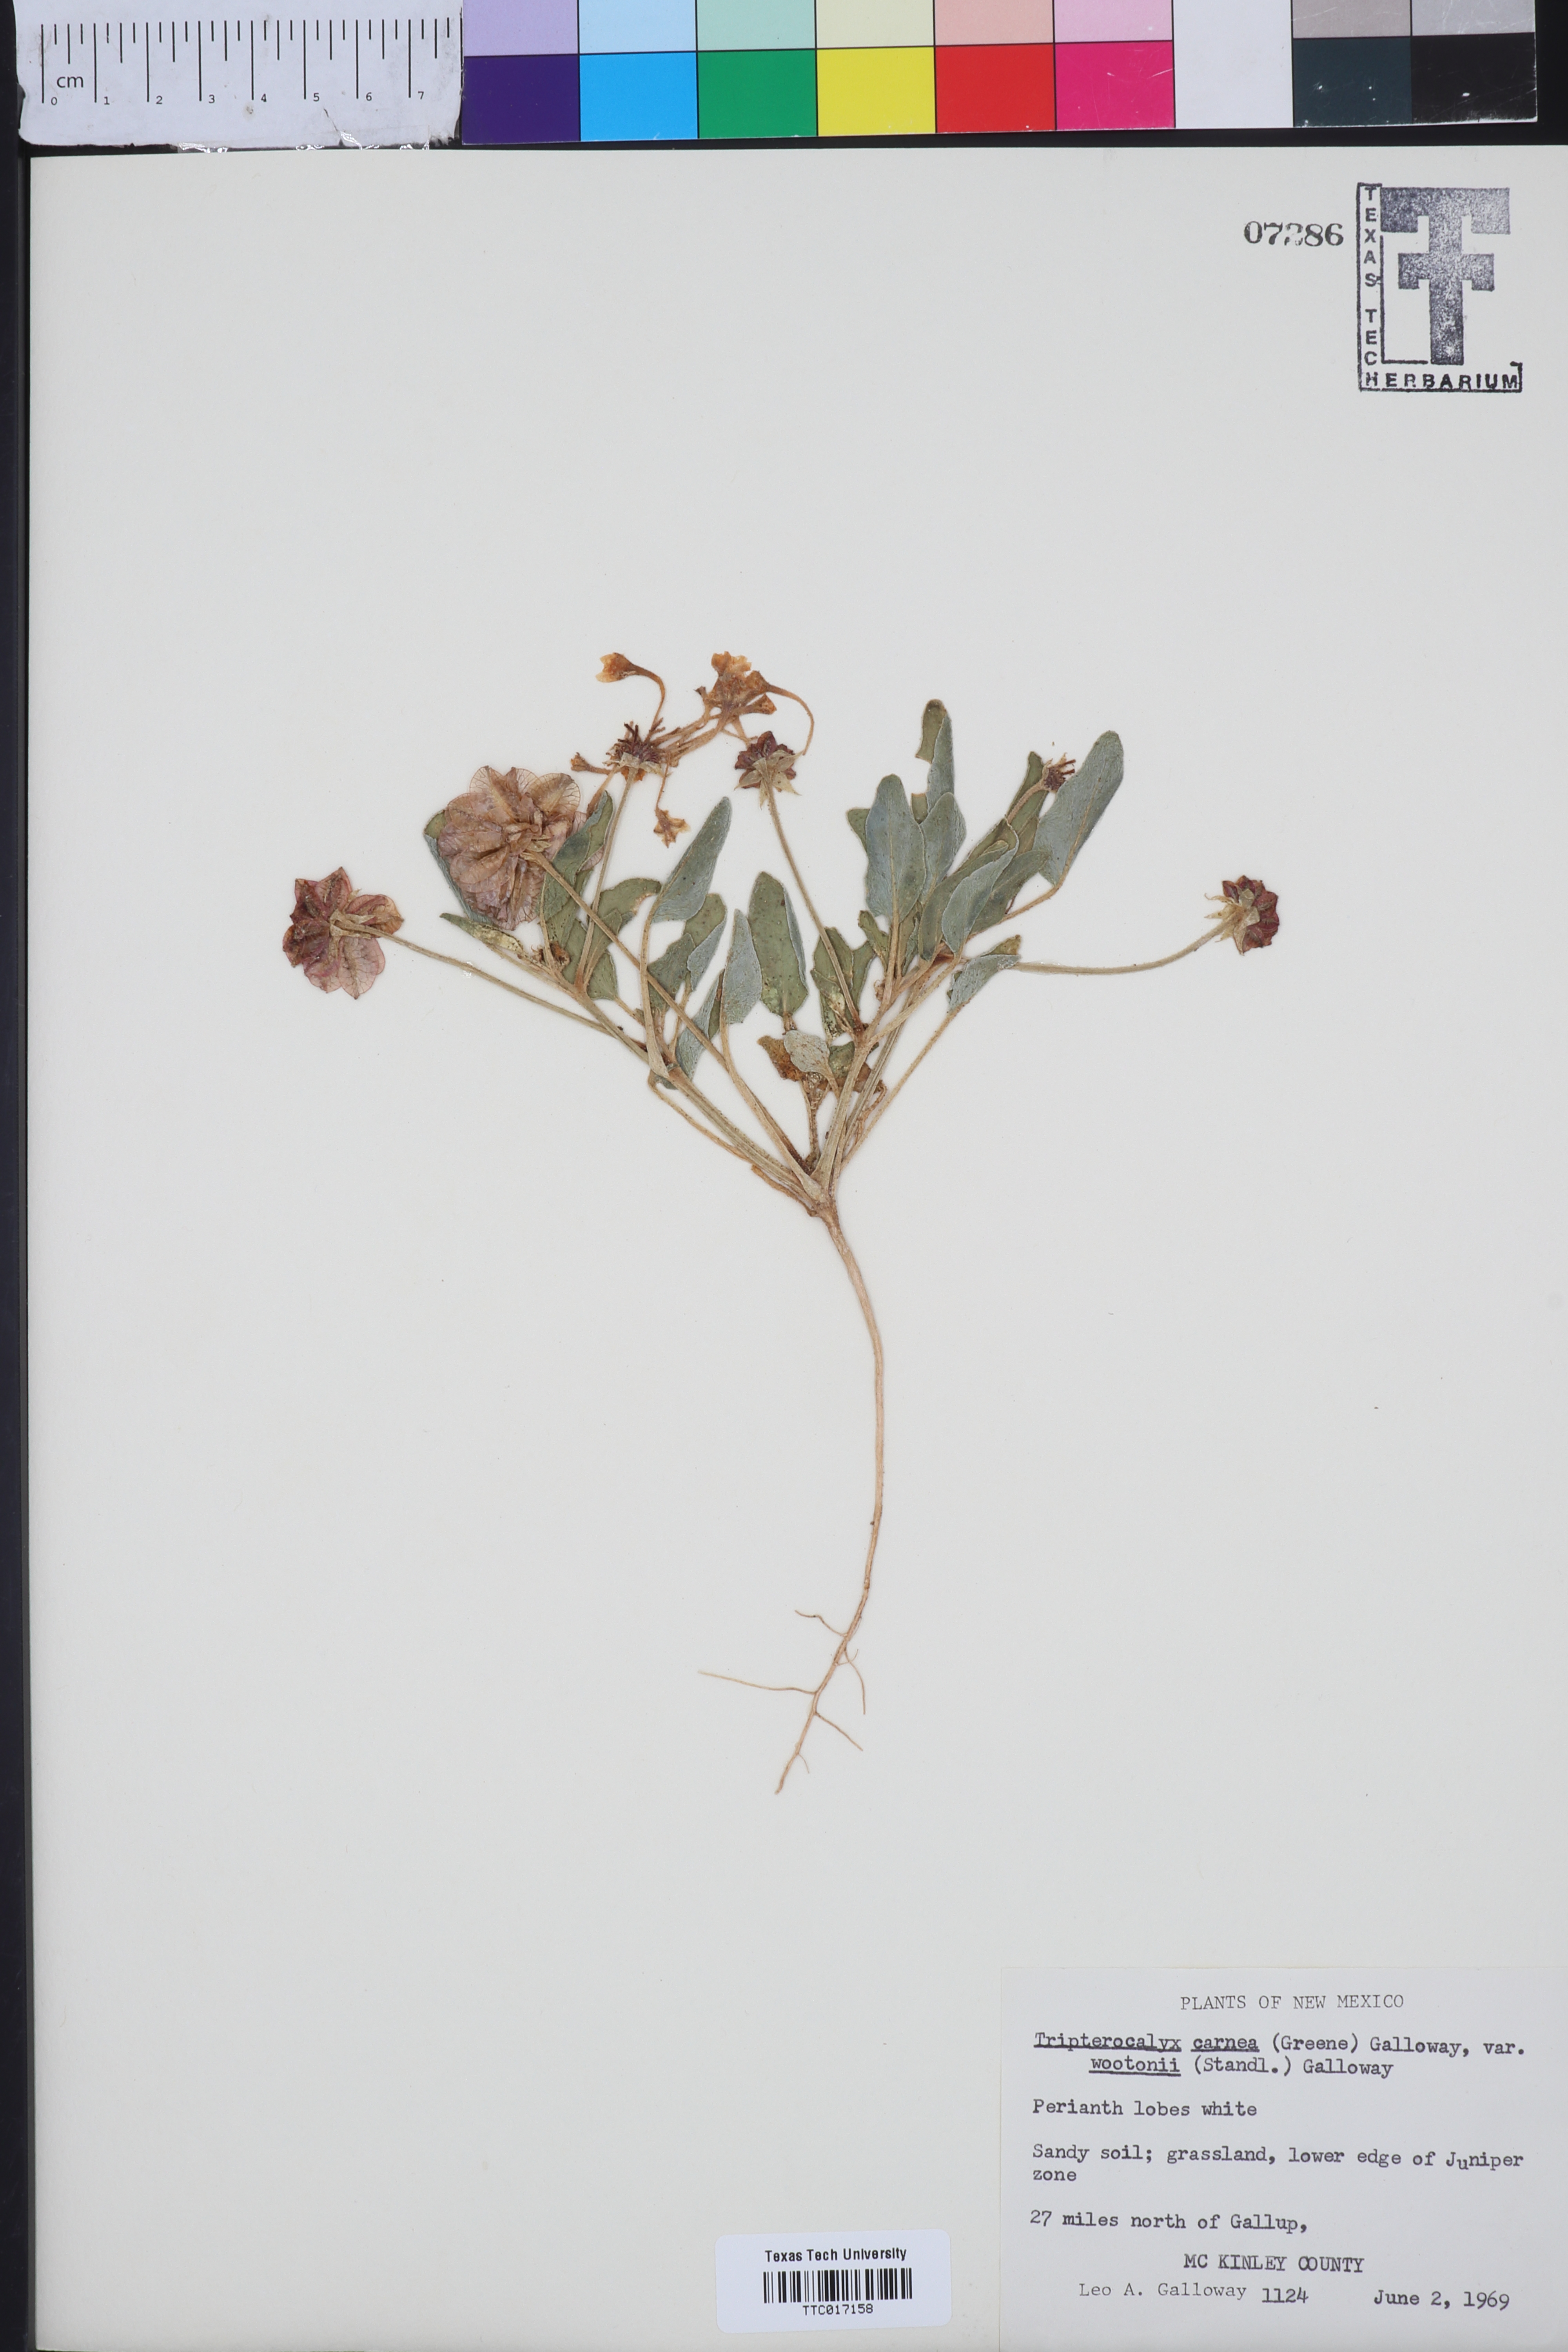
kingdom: Plantae
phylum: Tracheophyta
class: Magnoliopsida
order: Caryophyllales
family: Nyctaginaceae
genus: Tripterocalyx
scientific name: Tripterocalyx wootonii
